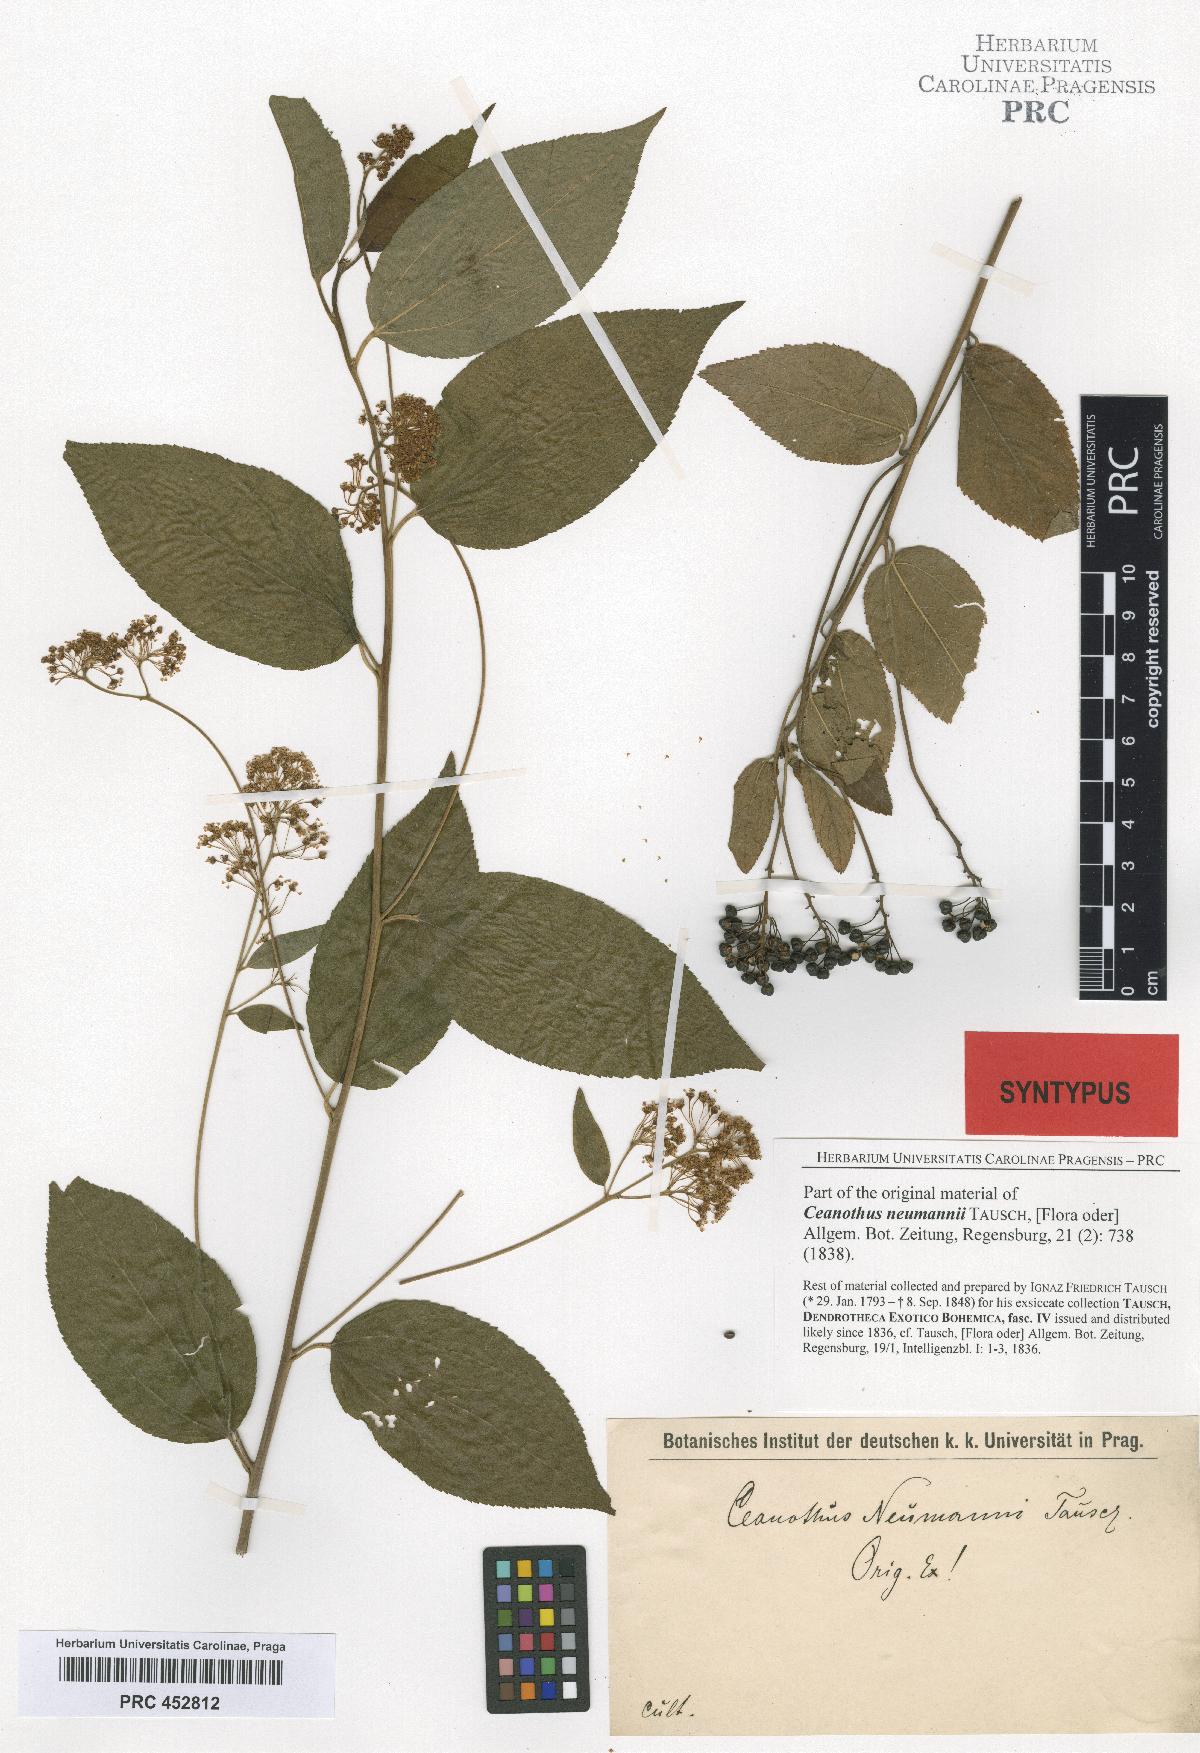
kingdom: Plantae
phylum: Tracheophyta
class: Magnoliopsida
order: Rosales
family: Rhamnaceae
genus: Ceanothus
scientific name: Ceanothus neumannii
